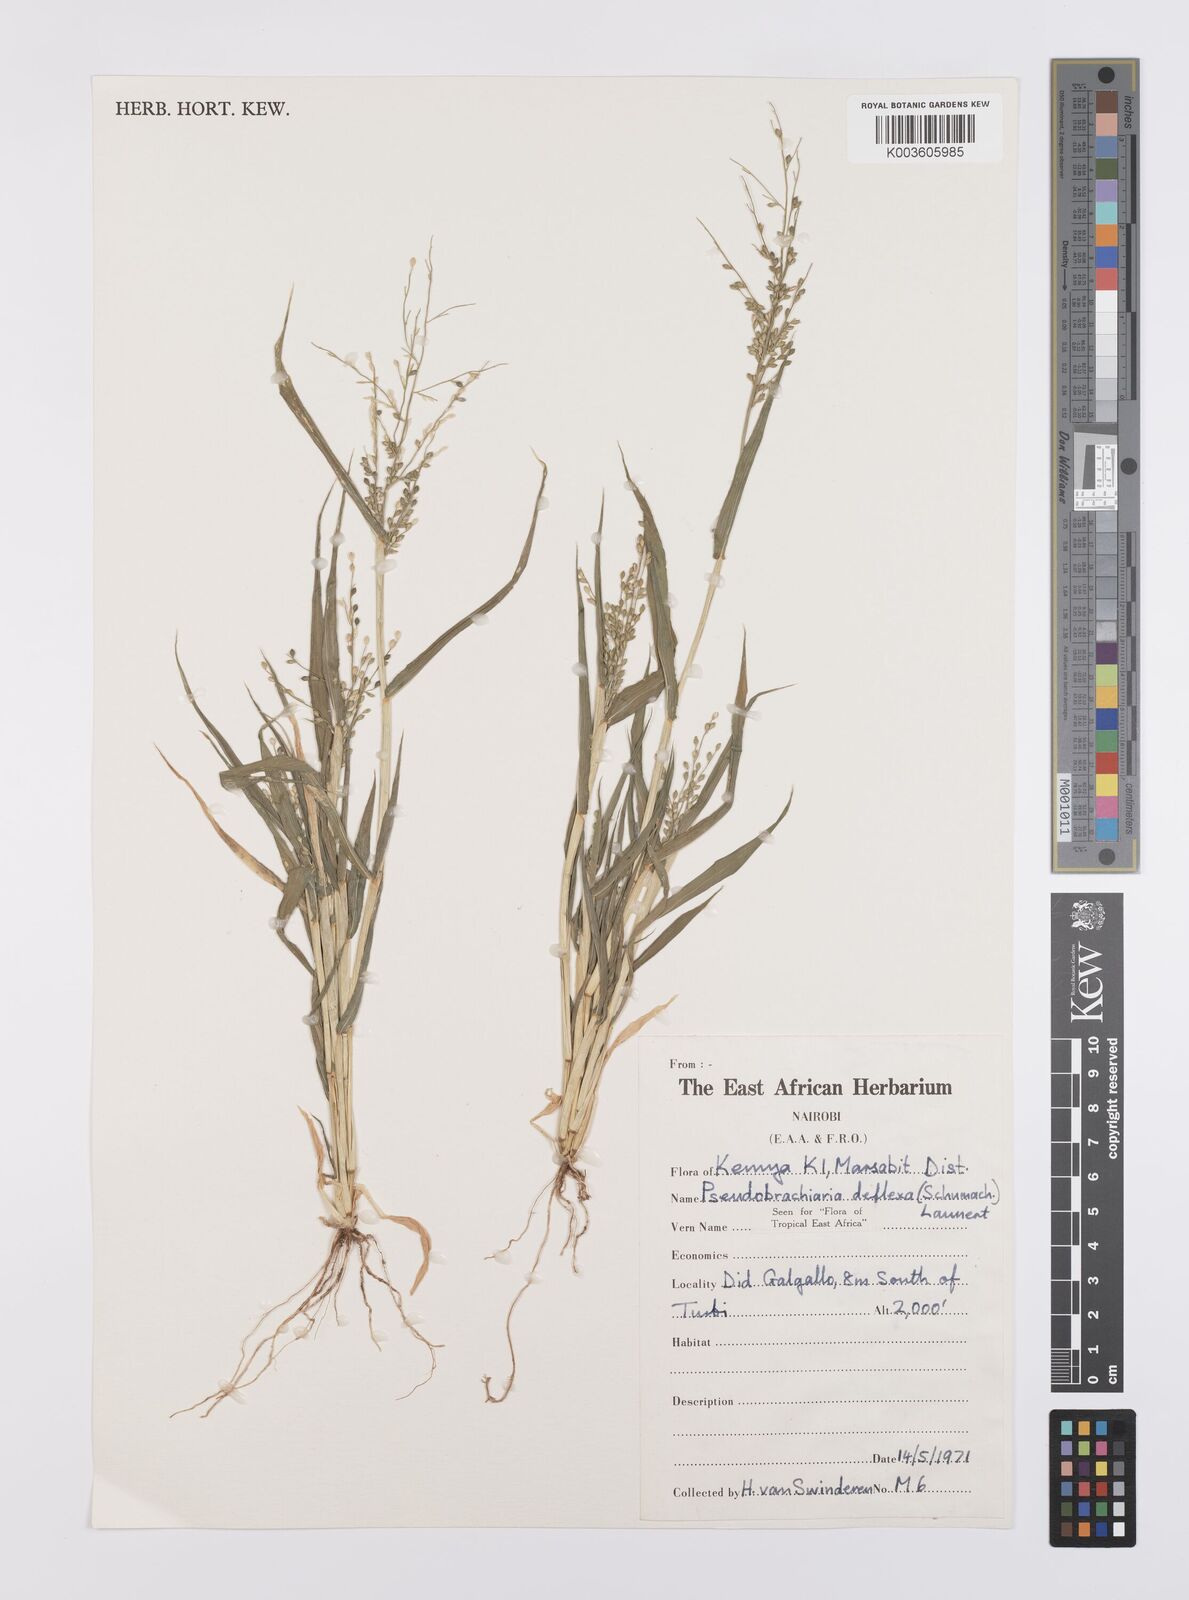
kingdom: Plantae
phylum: Tracheophyta
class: Liliopsida
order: Poales
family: Poaceae
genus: Urochloa
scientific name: Urochloa deflexa
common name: Guinea millet
